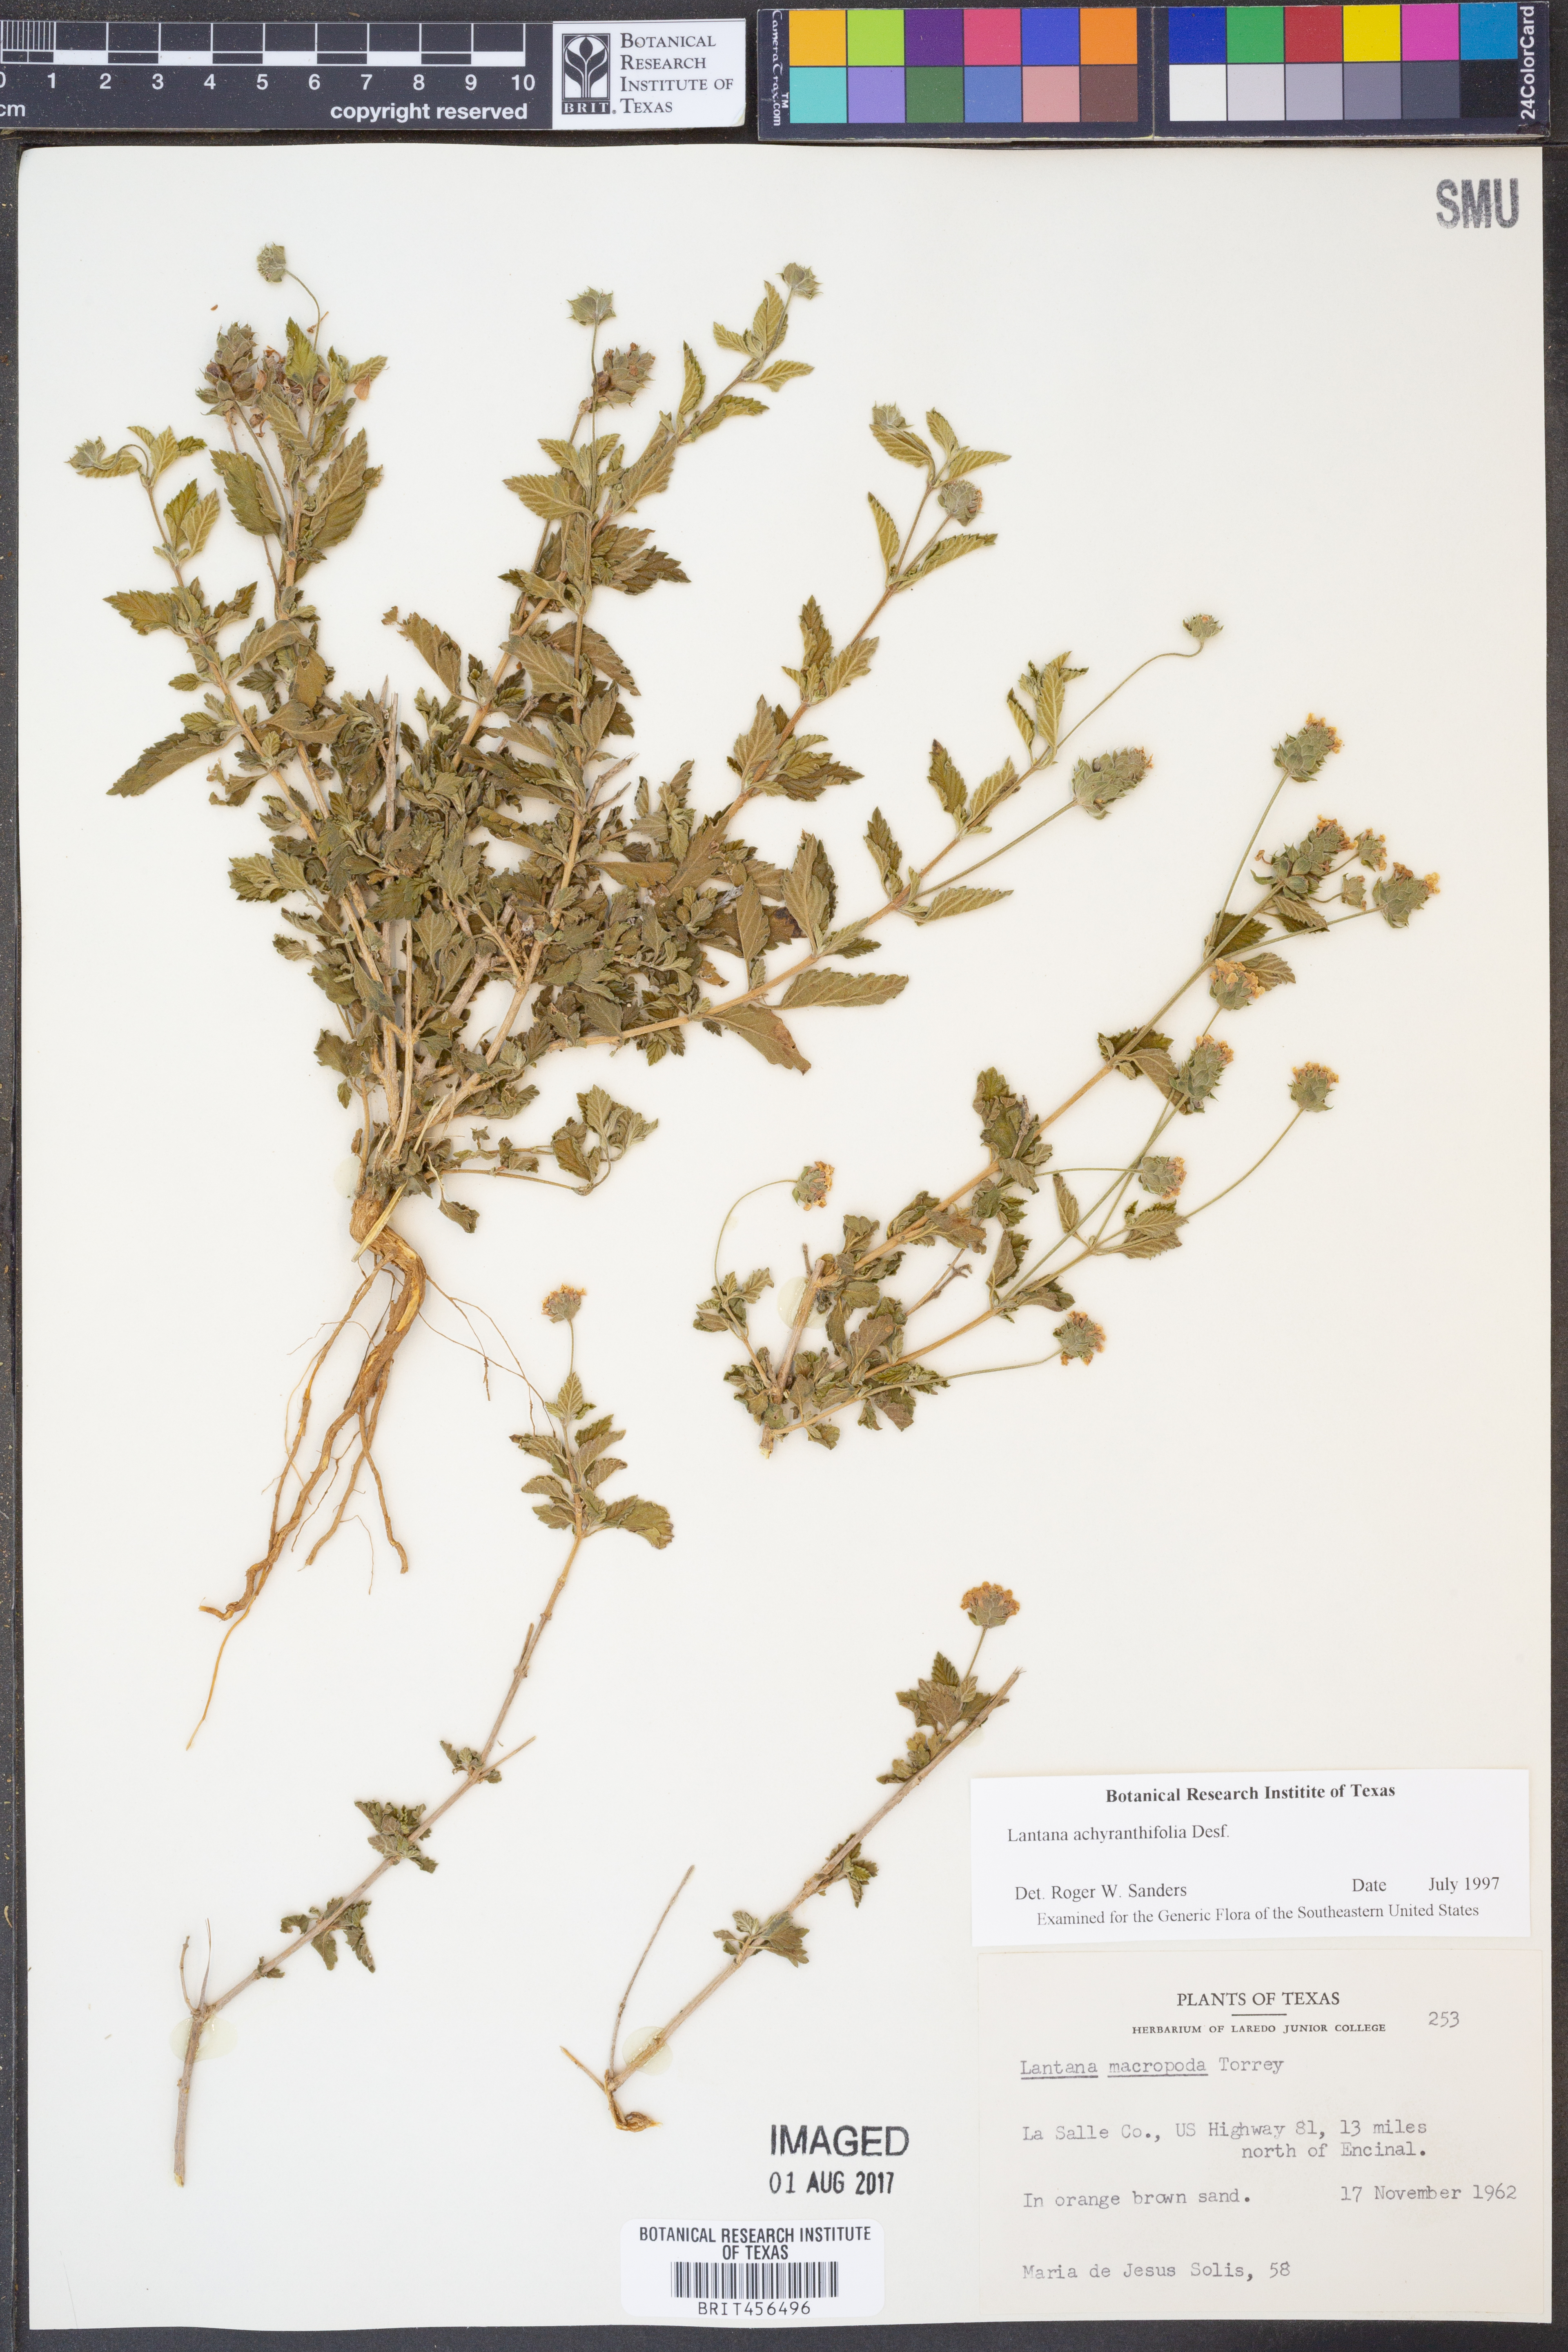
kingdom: Plantae
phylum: Tracheophyta
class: Magnoliopsida
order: Lamiales
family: Verbenaceae
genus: Lantana
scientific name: Lantana achyranthifolia
